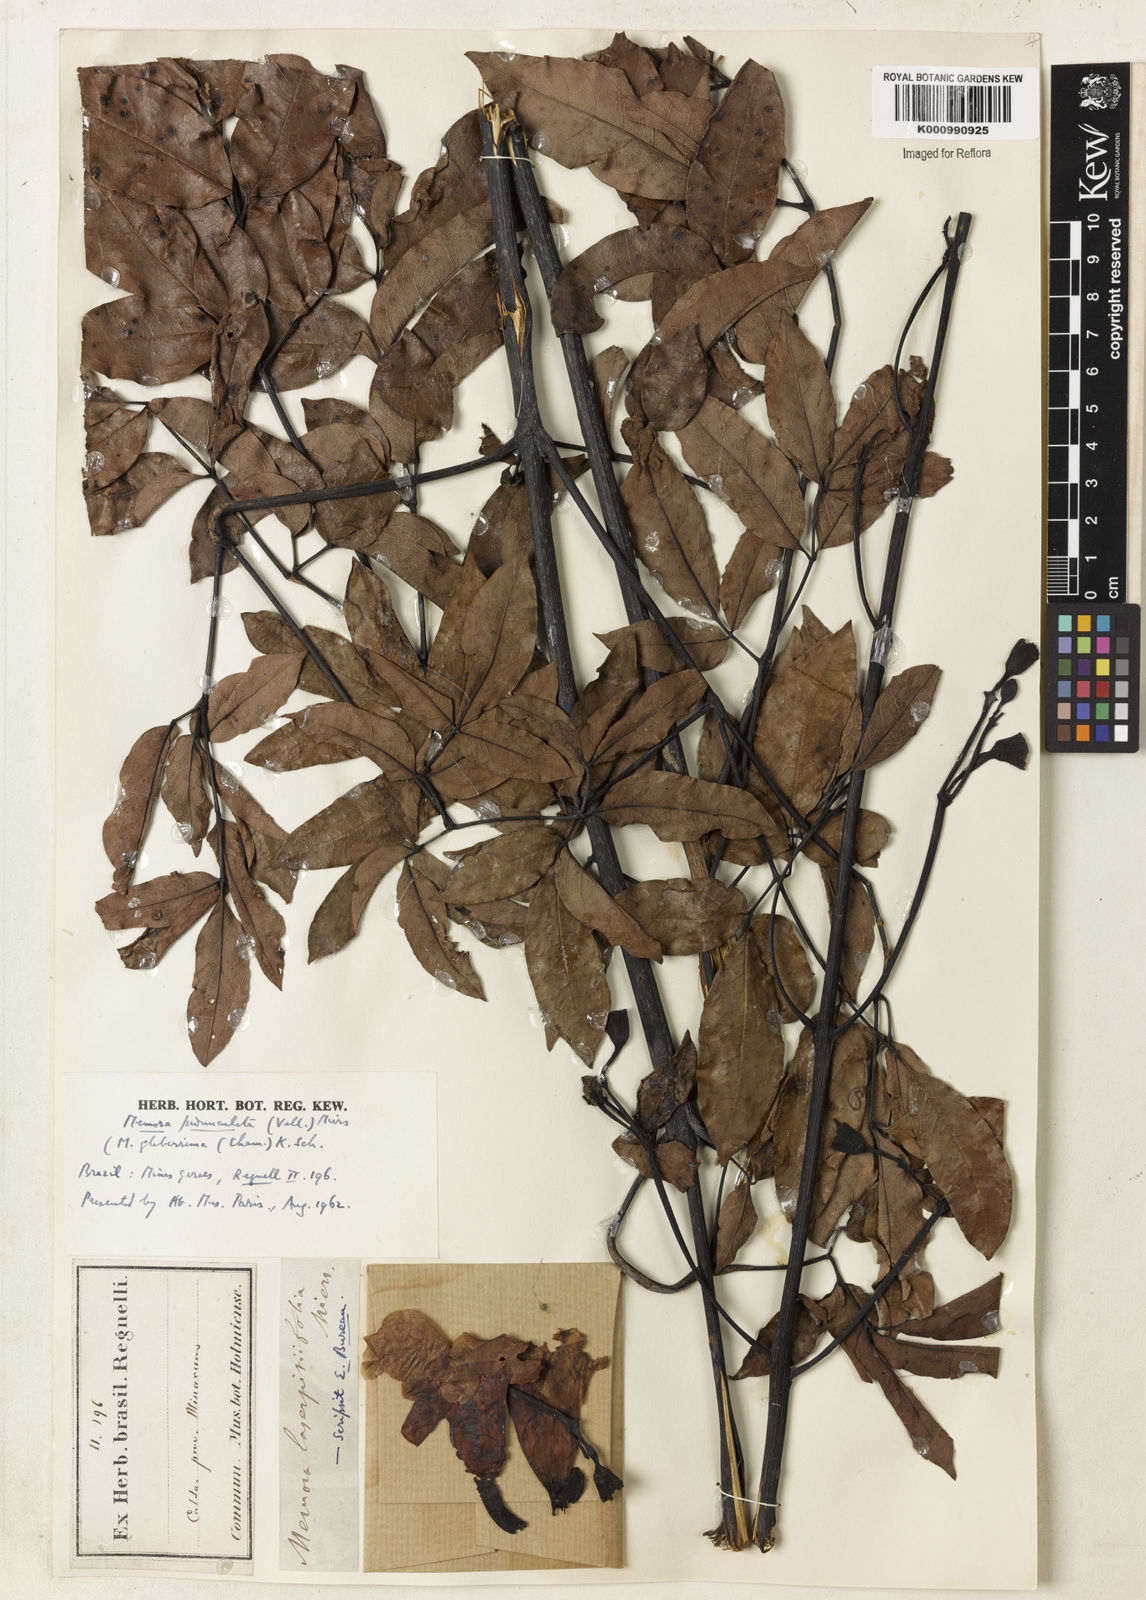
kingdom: Plantae
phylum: Tracheophyta
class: Magnoliopsida
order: Lamiales
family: Bignoniaceae
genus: Adenocalymma
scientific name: Adenocalymma pedunculatum
